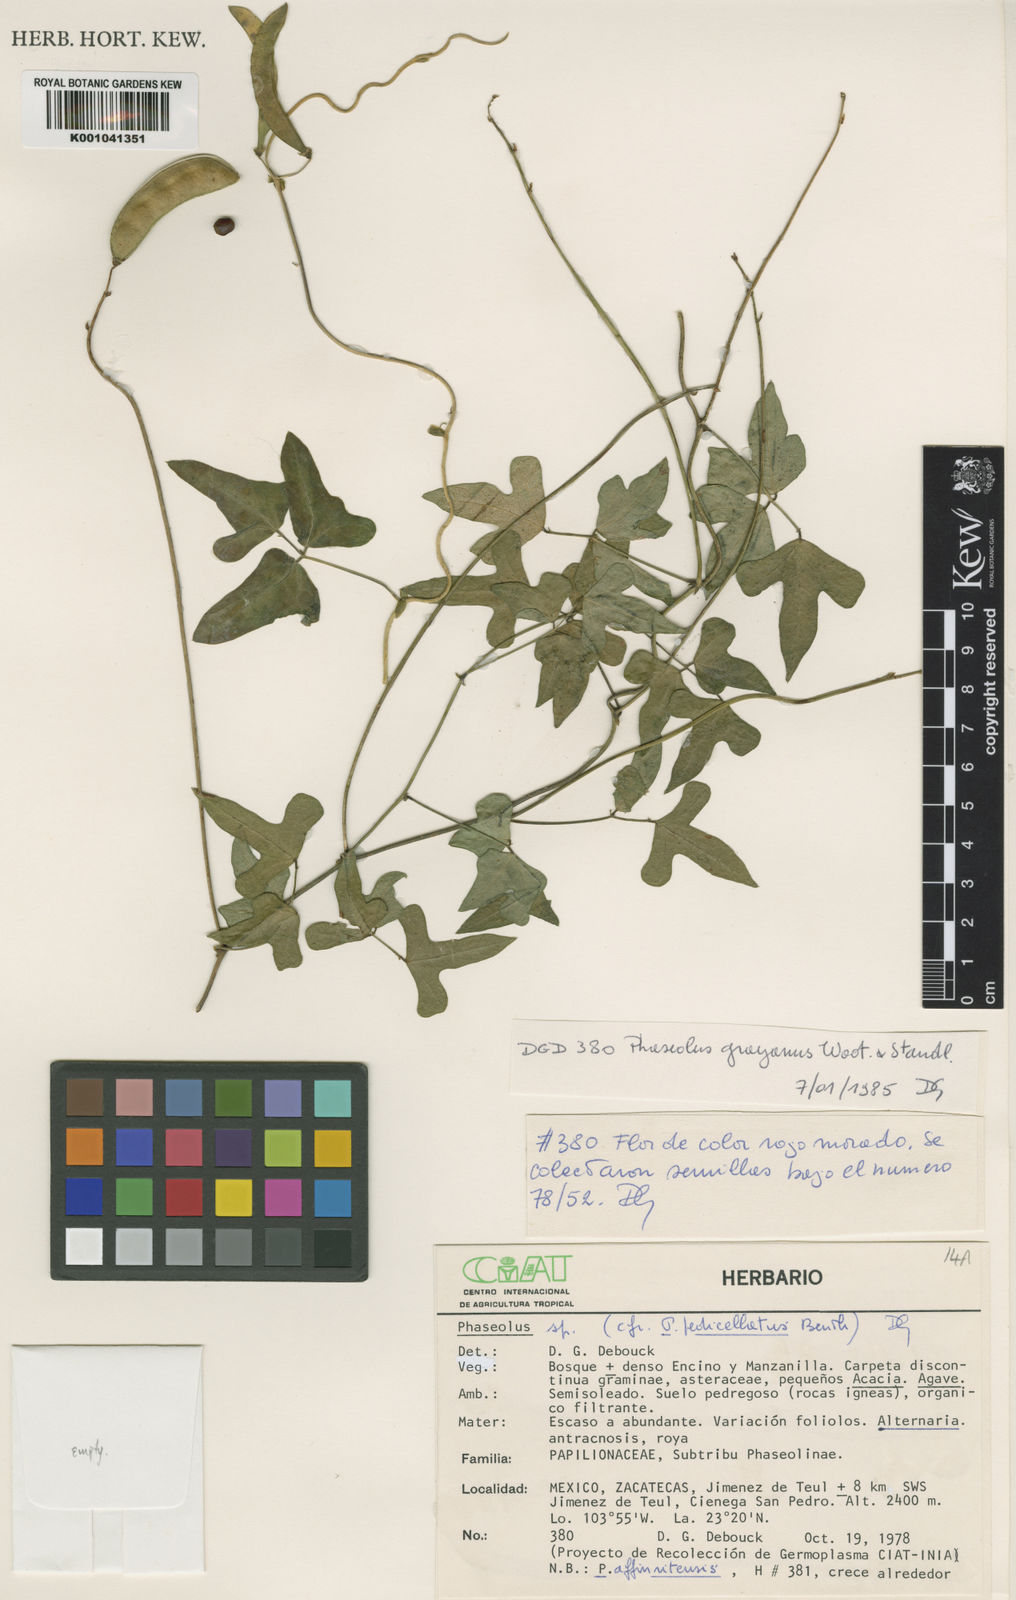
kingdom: Plantae
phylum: Tracheophyta
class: Magnoliopsida
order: Fabales
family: Fabaceae
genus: Phaseolus
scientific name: Phaseolus pedicellatus
